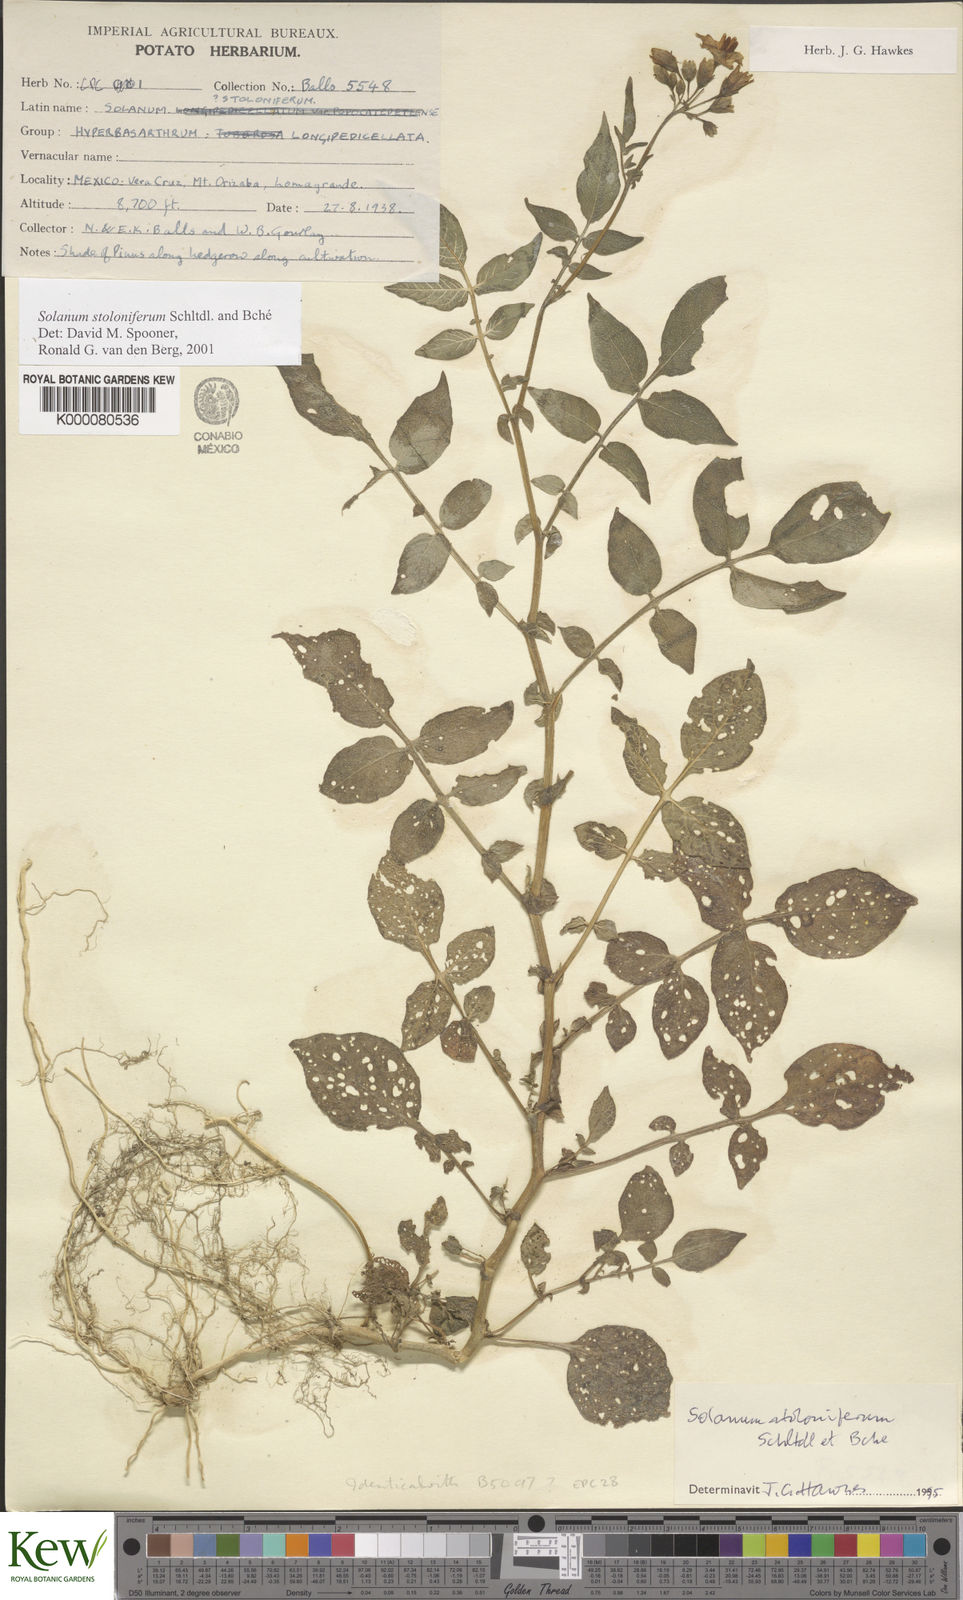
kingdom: Plantae
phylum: Tracheophyta
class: Magnoliopsida
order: Solanales
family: Solanaceae
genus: Solanum
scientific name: Solanum stoloniferum
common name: Fendler's nighshade
